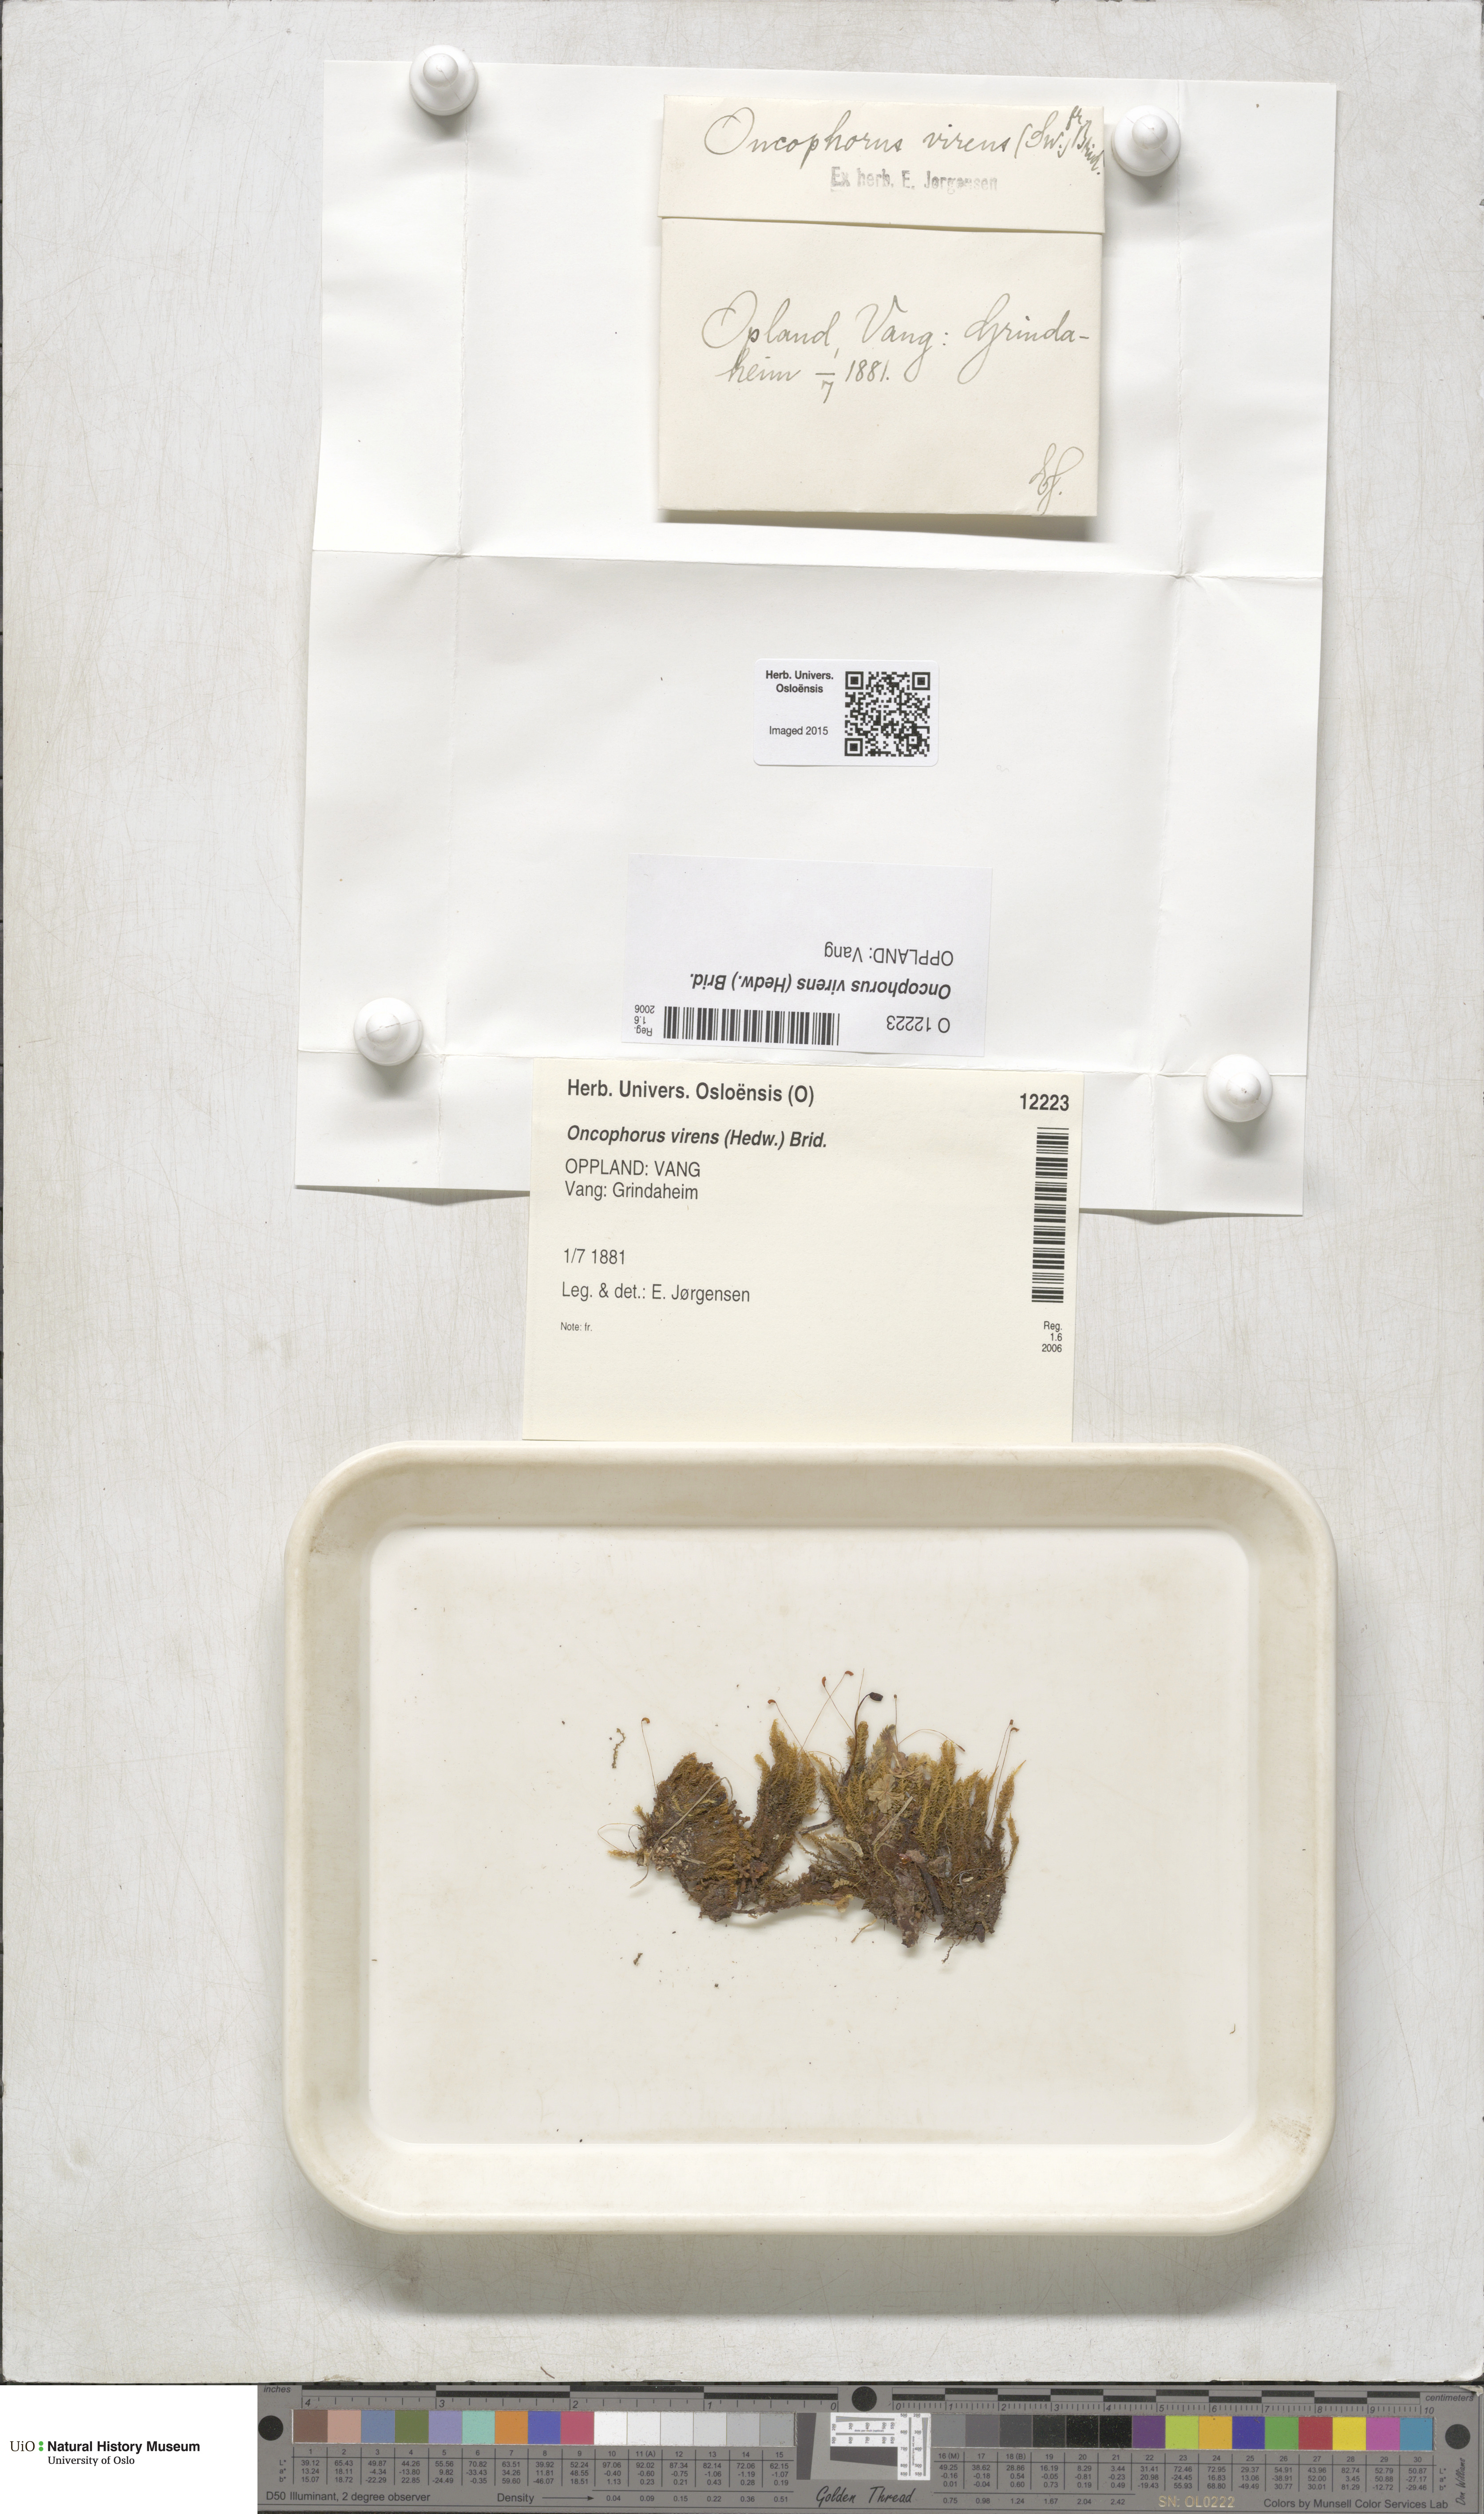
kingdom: Plantae
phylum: Bryophyta
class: Bryopsida
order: Dicranales
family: Rhabdoweisiaceae
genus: Oncophorus
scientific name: Oncophorus virens
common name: Green spur moss
